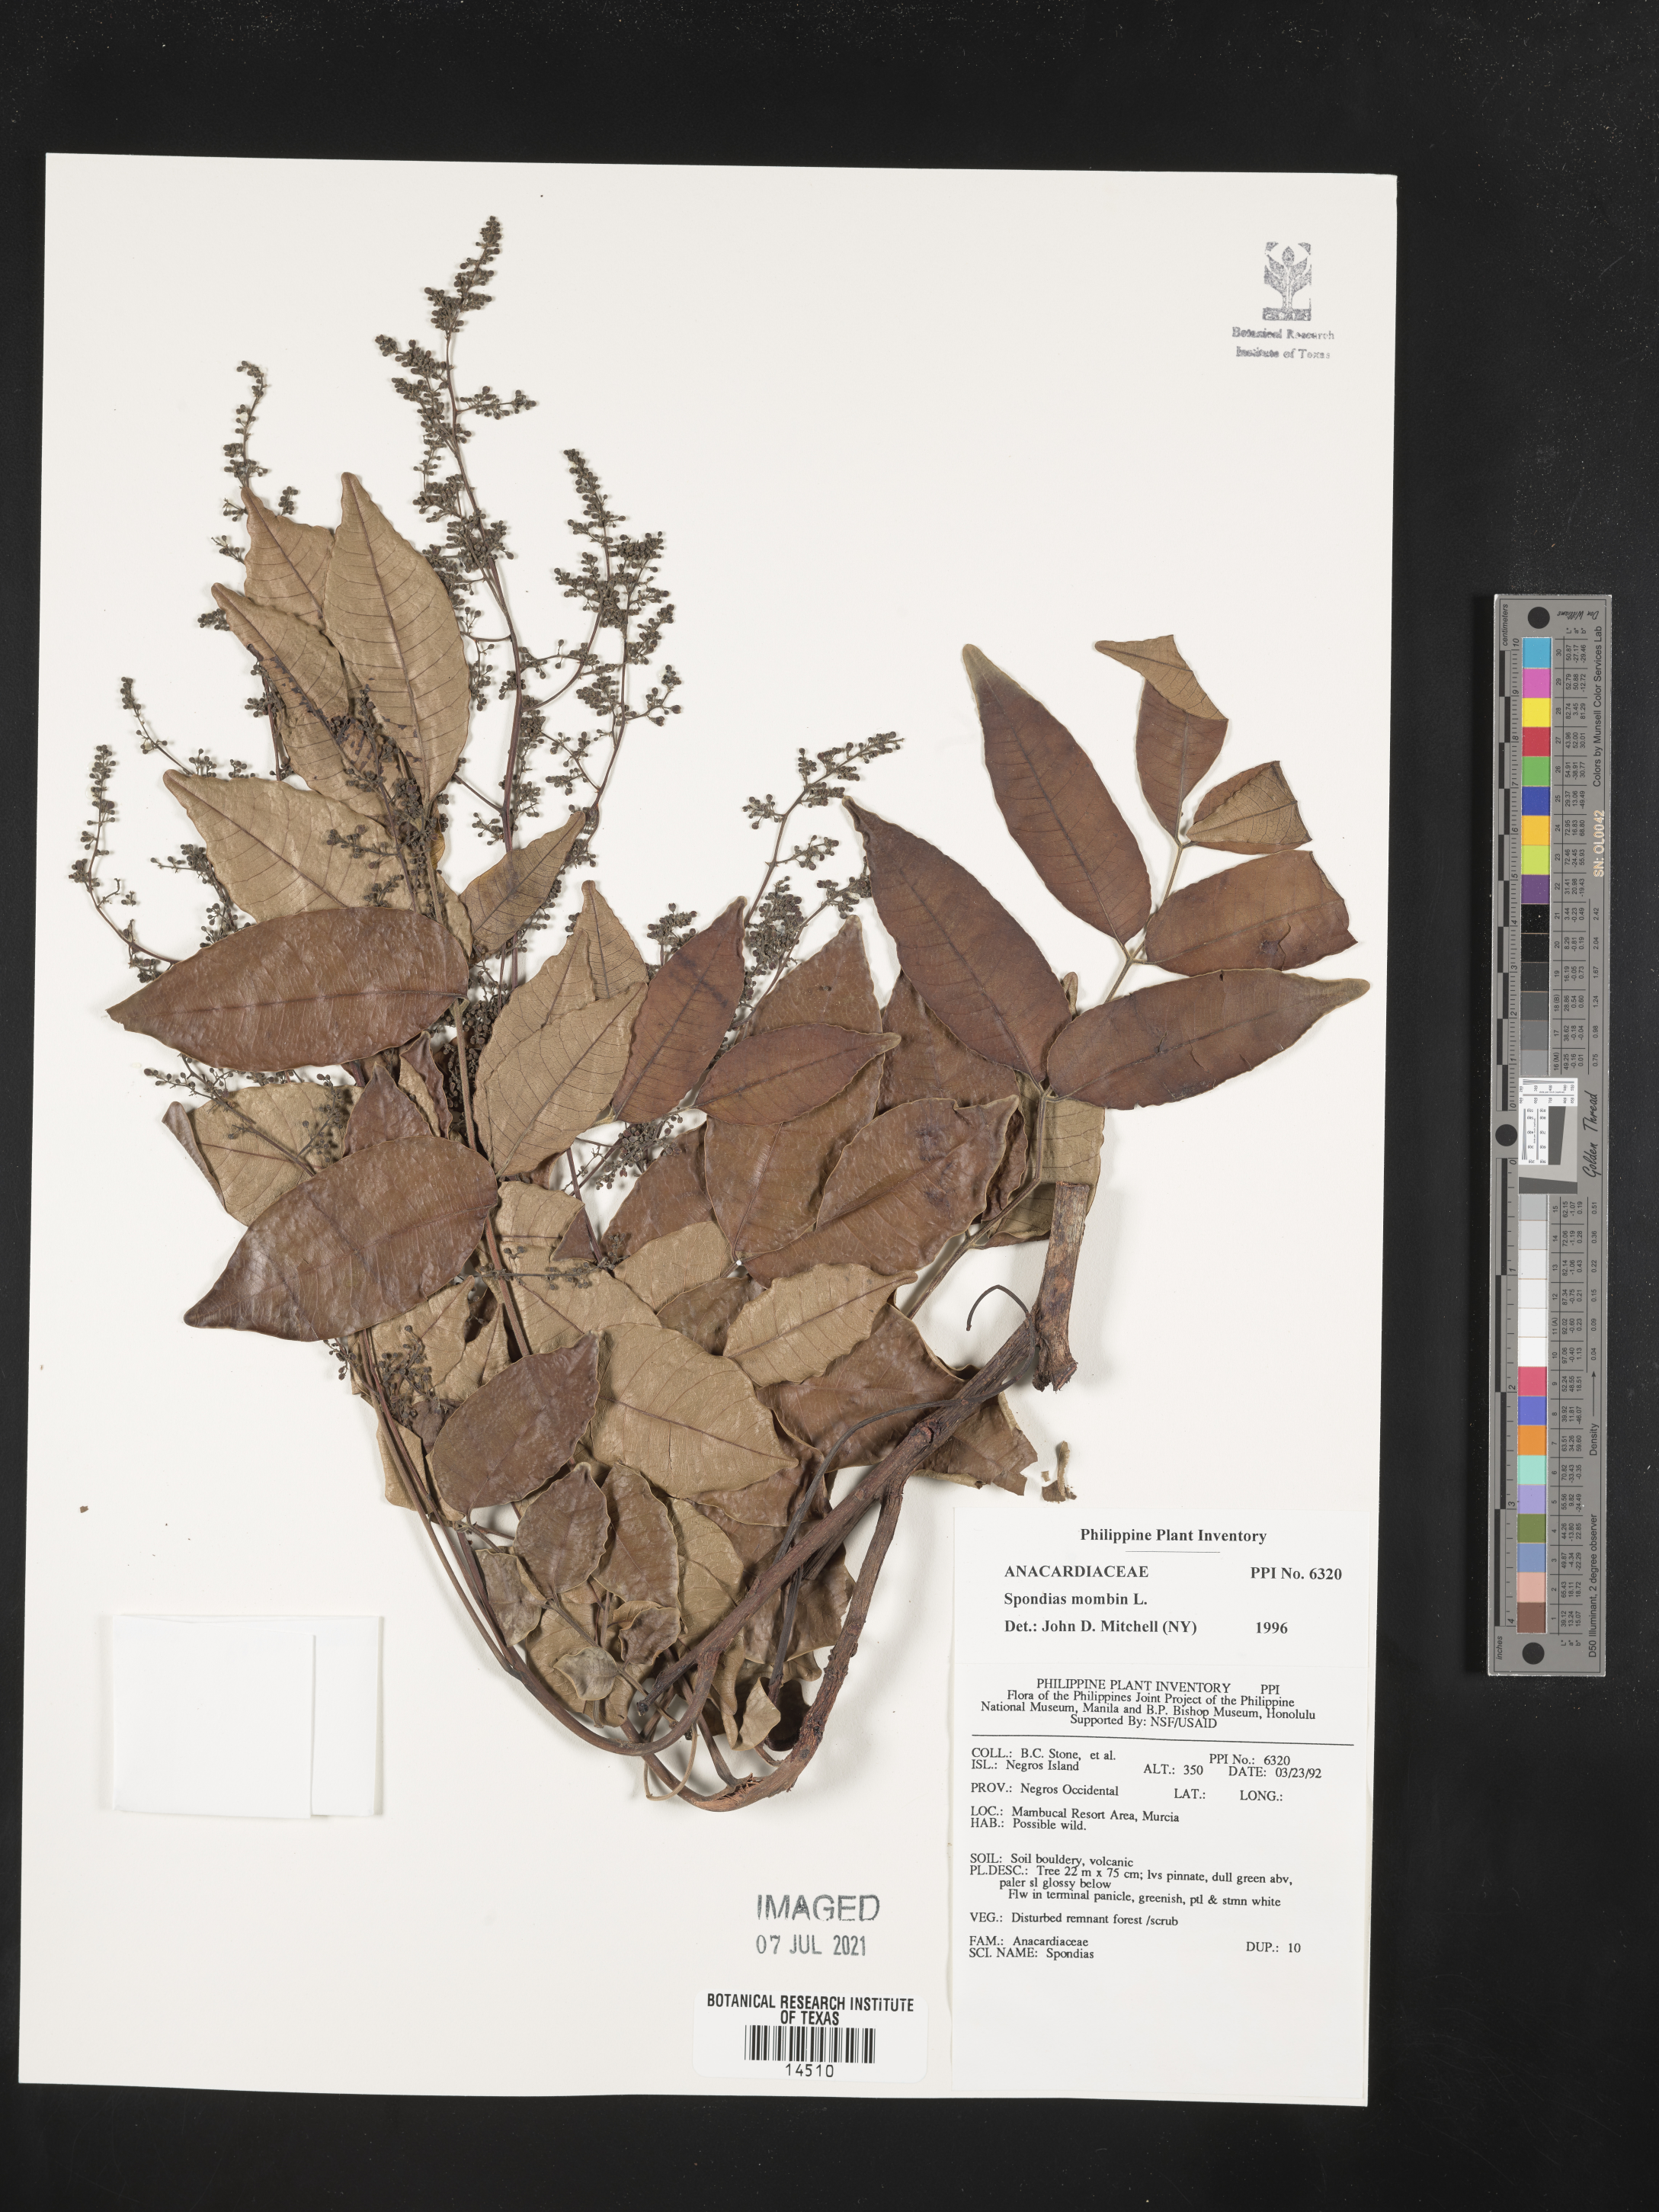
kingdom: Plantae
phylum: Tracheophyta
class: Magnoliopsida
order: Sapindales
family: Anacardiaceae
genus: Spondias
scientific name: Spondias mombin
